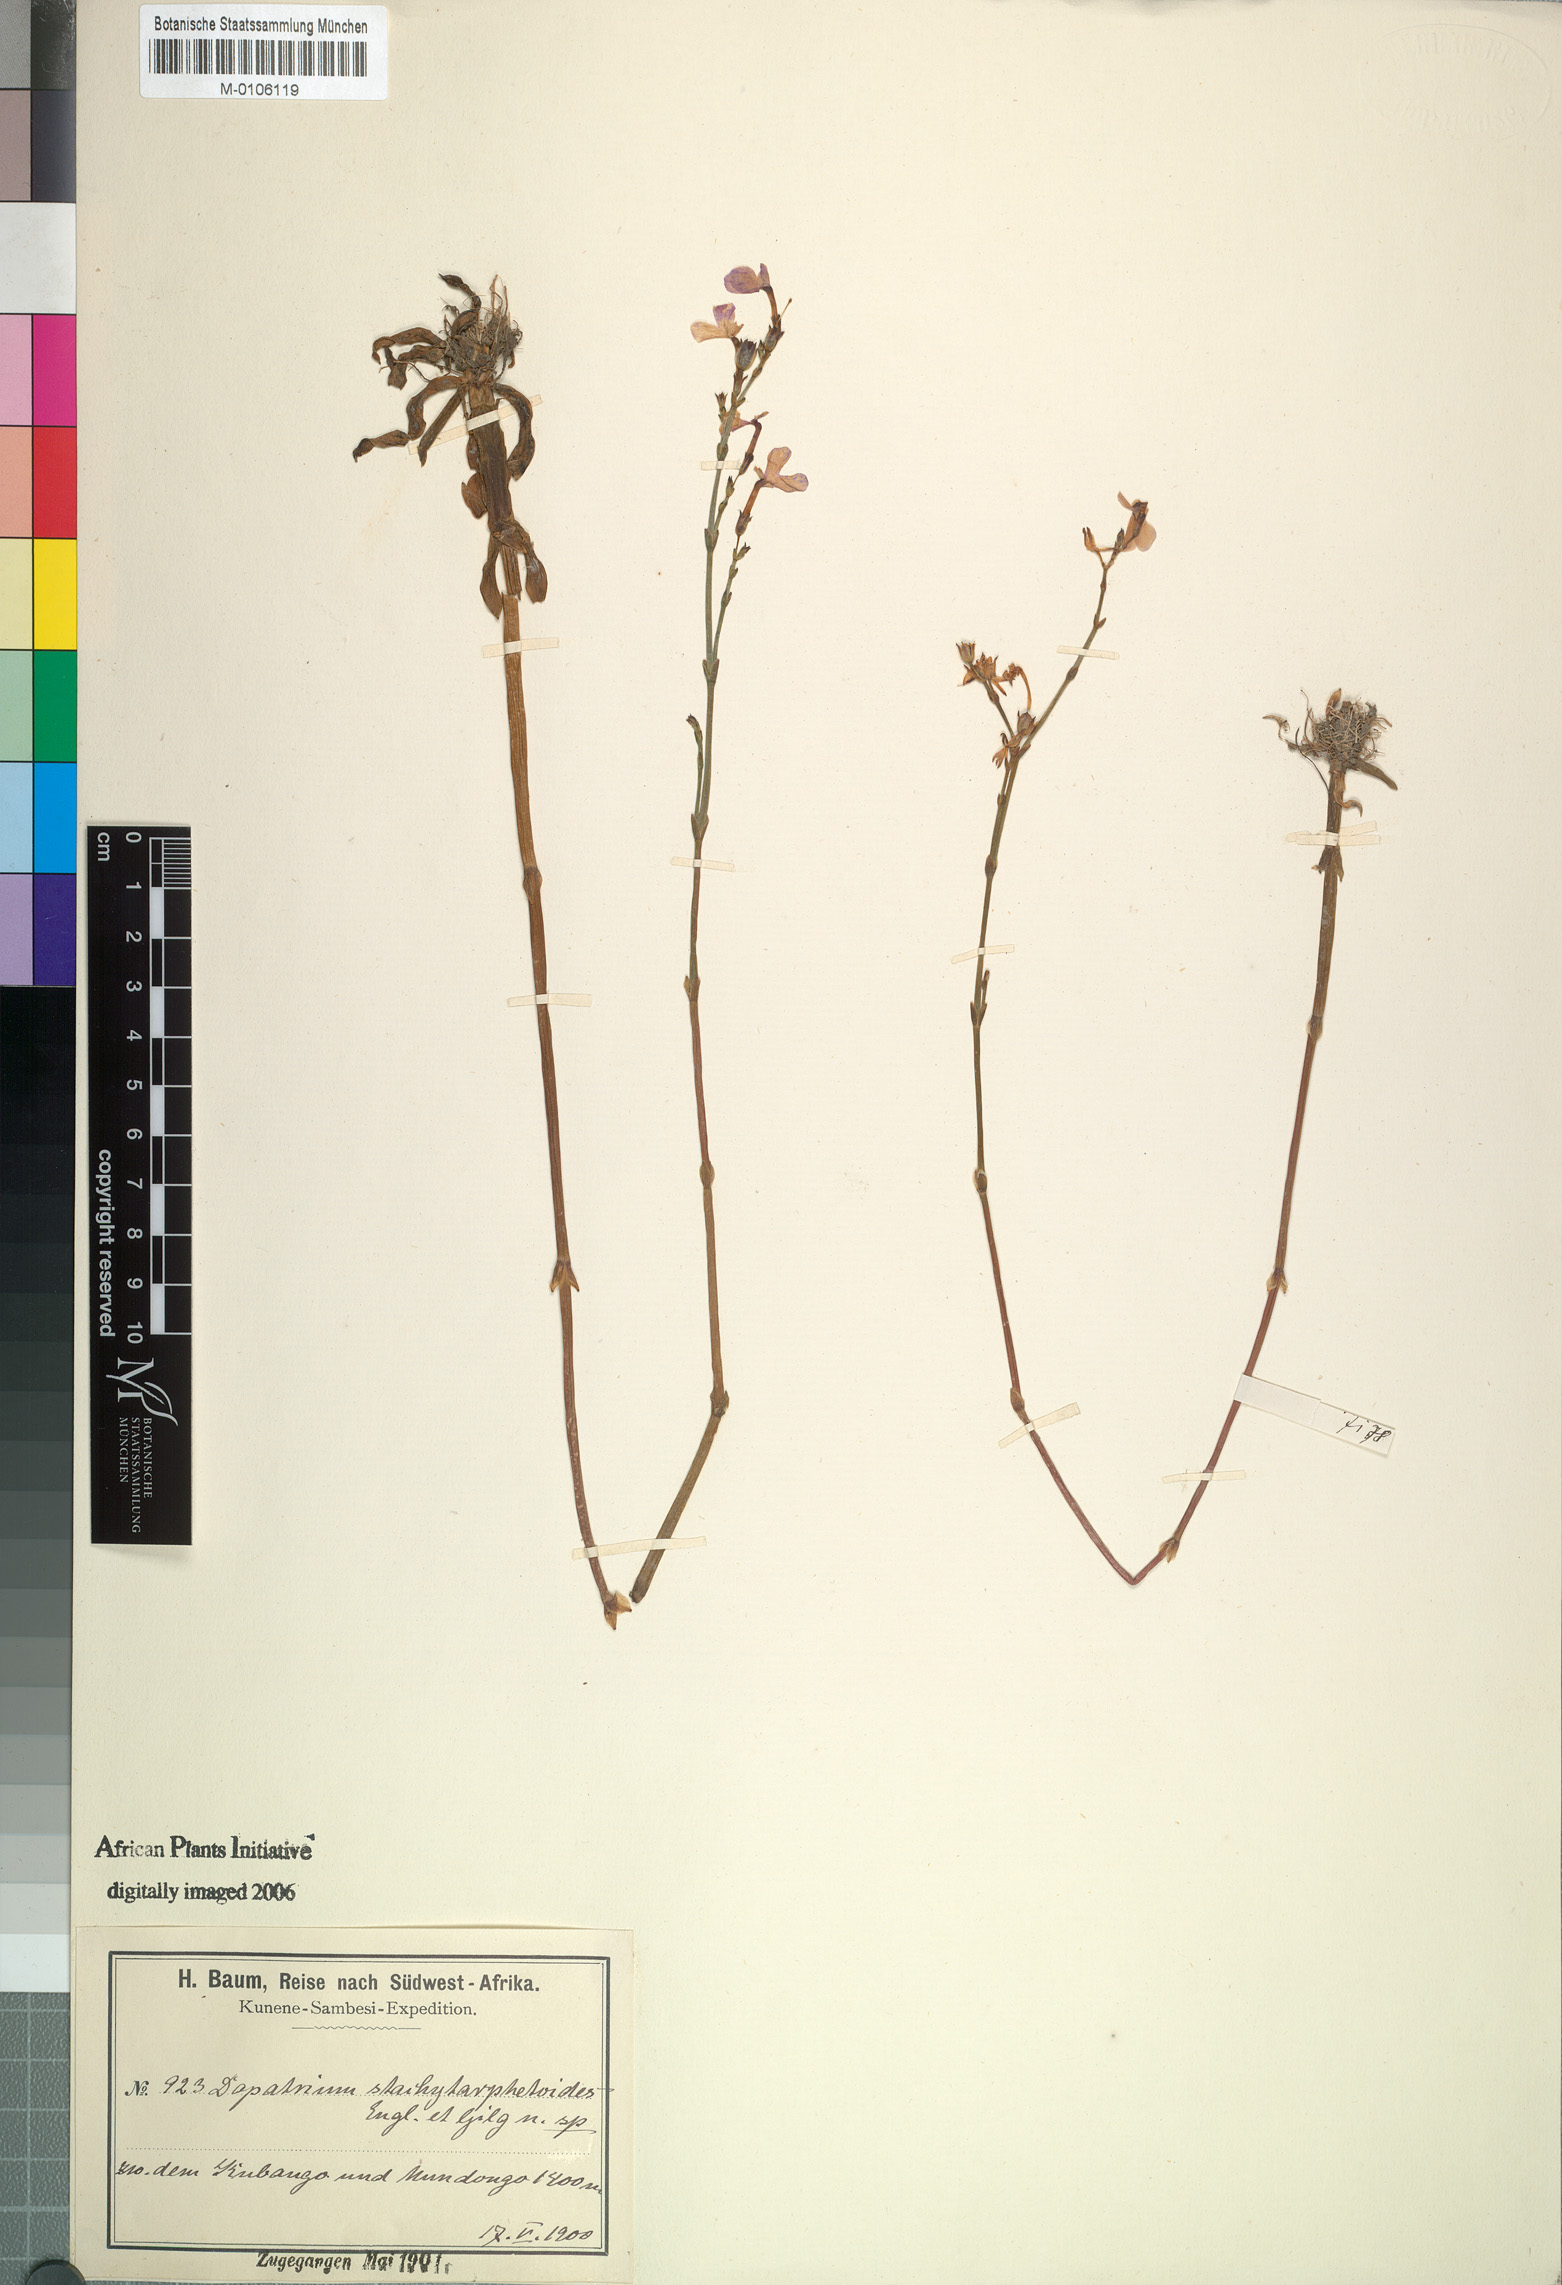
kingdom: Plantae
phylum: Tracheophyta
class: Magnoliopsida
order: Lamiales
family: Plantaginaceae
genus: Dopatrium
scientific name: Dopatrium stachytarphetoides
